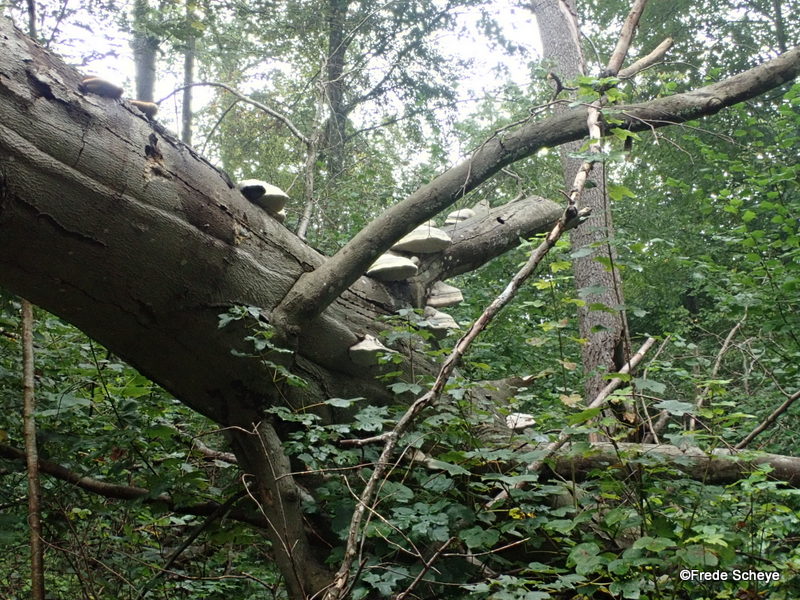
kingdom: Fungi
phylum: Basidiomycota
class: Agaricomycetes
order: Polyporales
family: Polyporaceae
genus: Fomes
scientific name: Fomes fomentarius
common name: tøndersvamp
